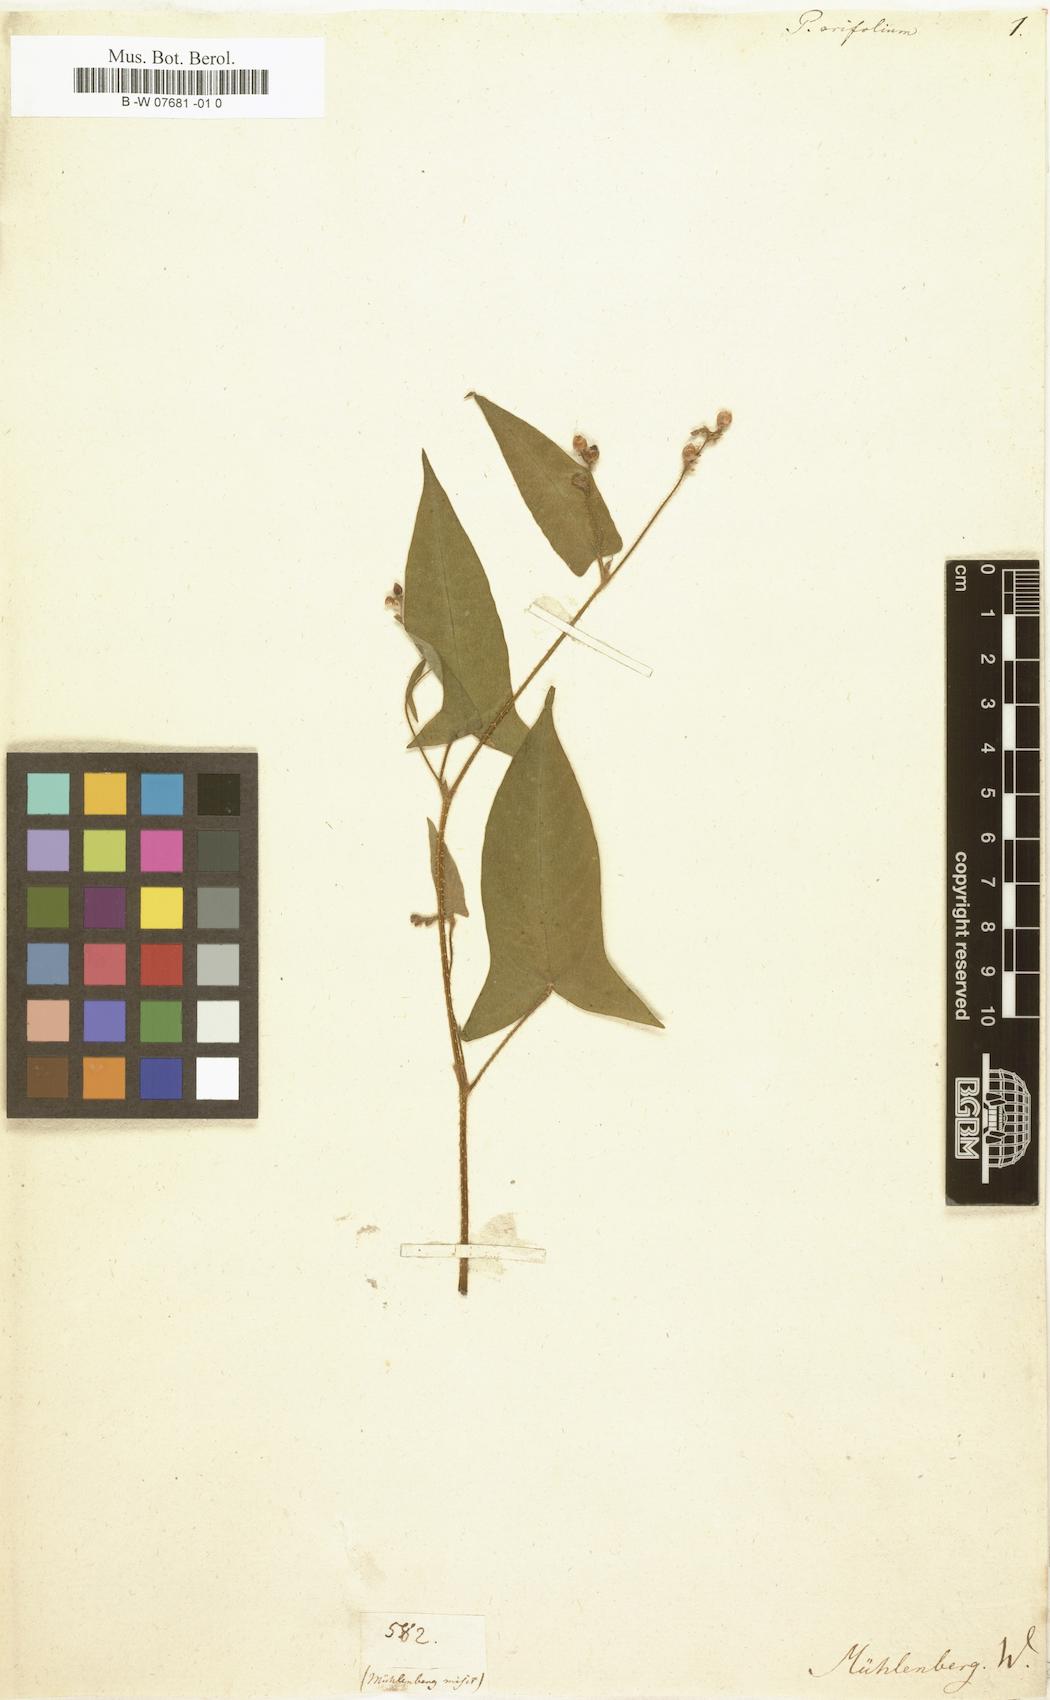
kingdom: Plantae
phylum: Tracheophyta
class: Magnoliopsida
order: Caryophyllales
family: Polygonaceae
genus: Persicaria
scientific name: Persicaria
